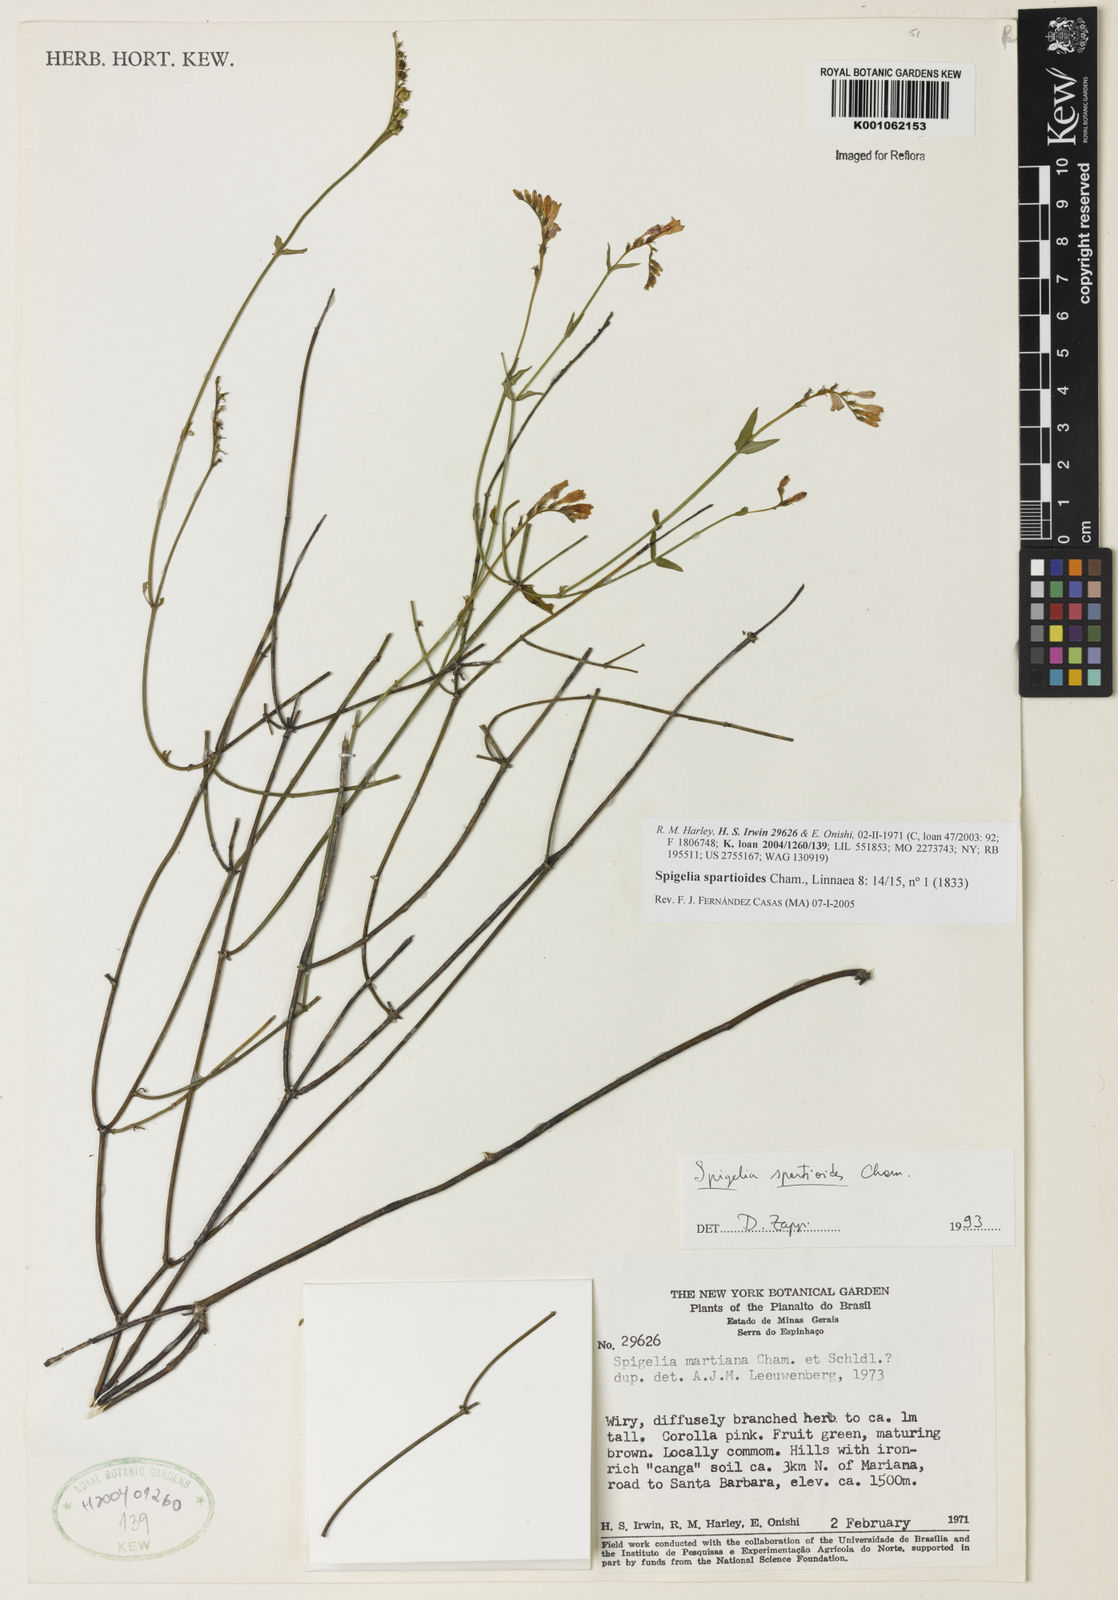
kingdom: Plantae
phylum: Tracheophyta
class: Magnoliopsida
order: Gentianales
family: Loganiaceae
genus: Spigelia
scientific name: Spigelia spartioides
